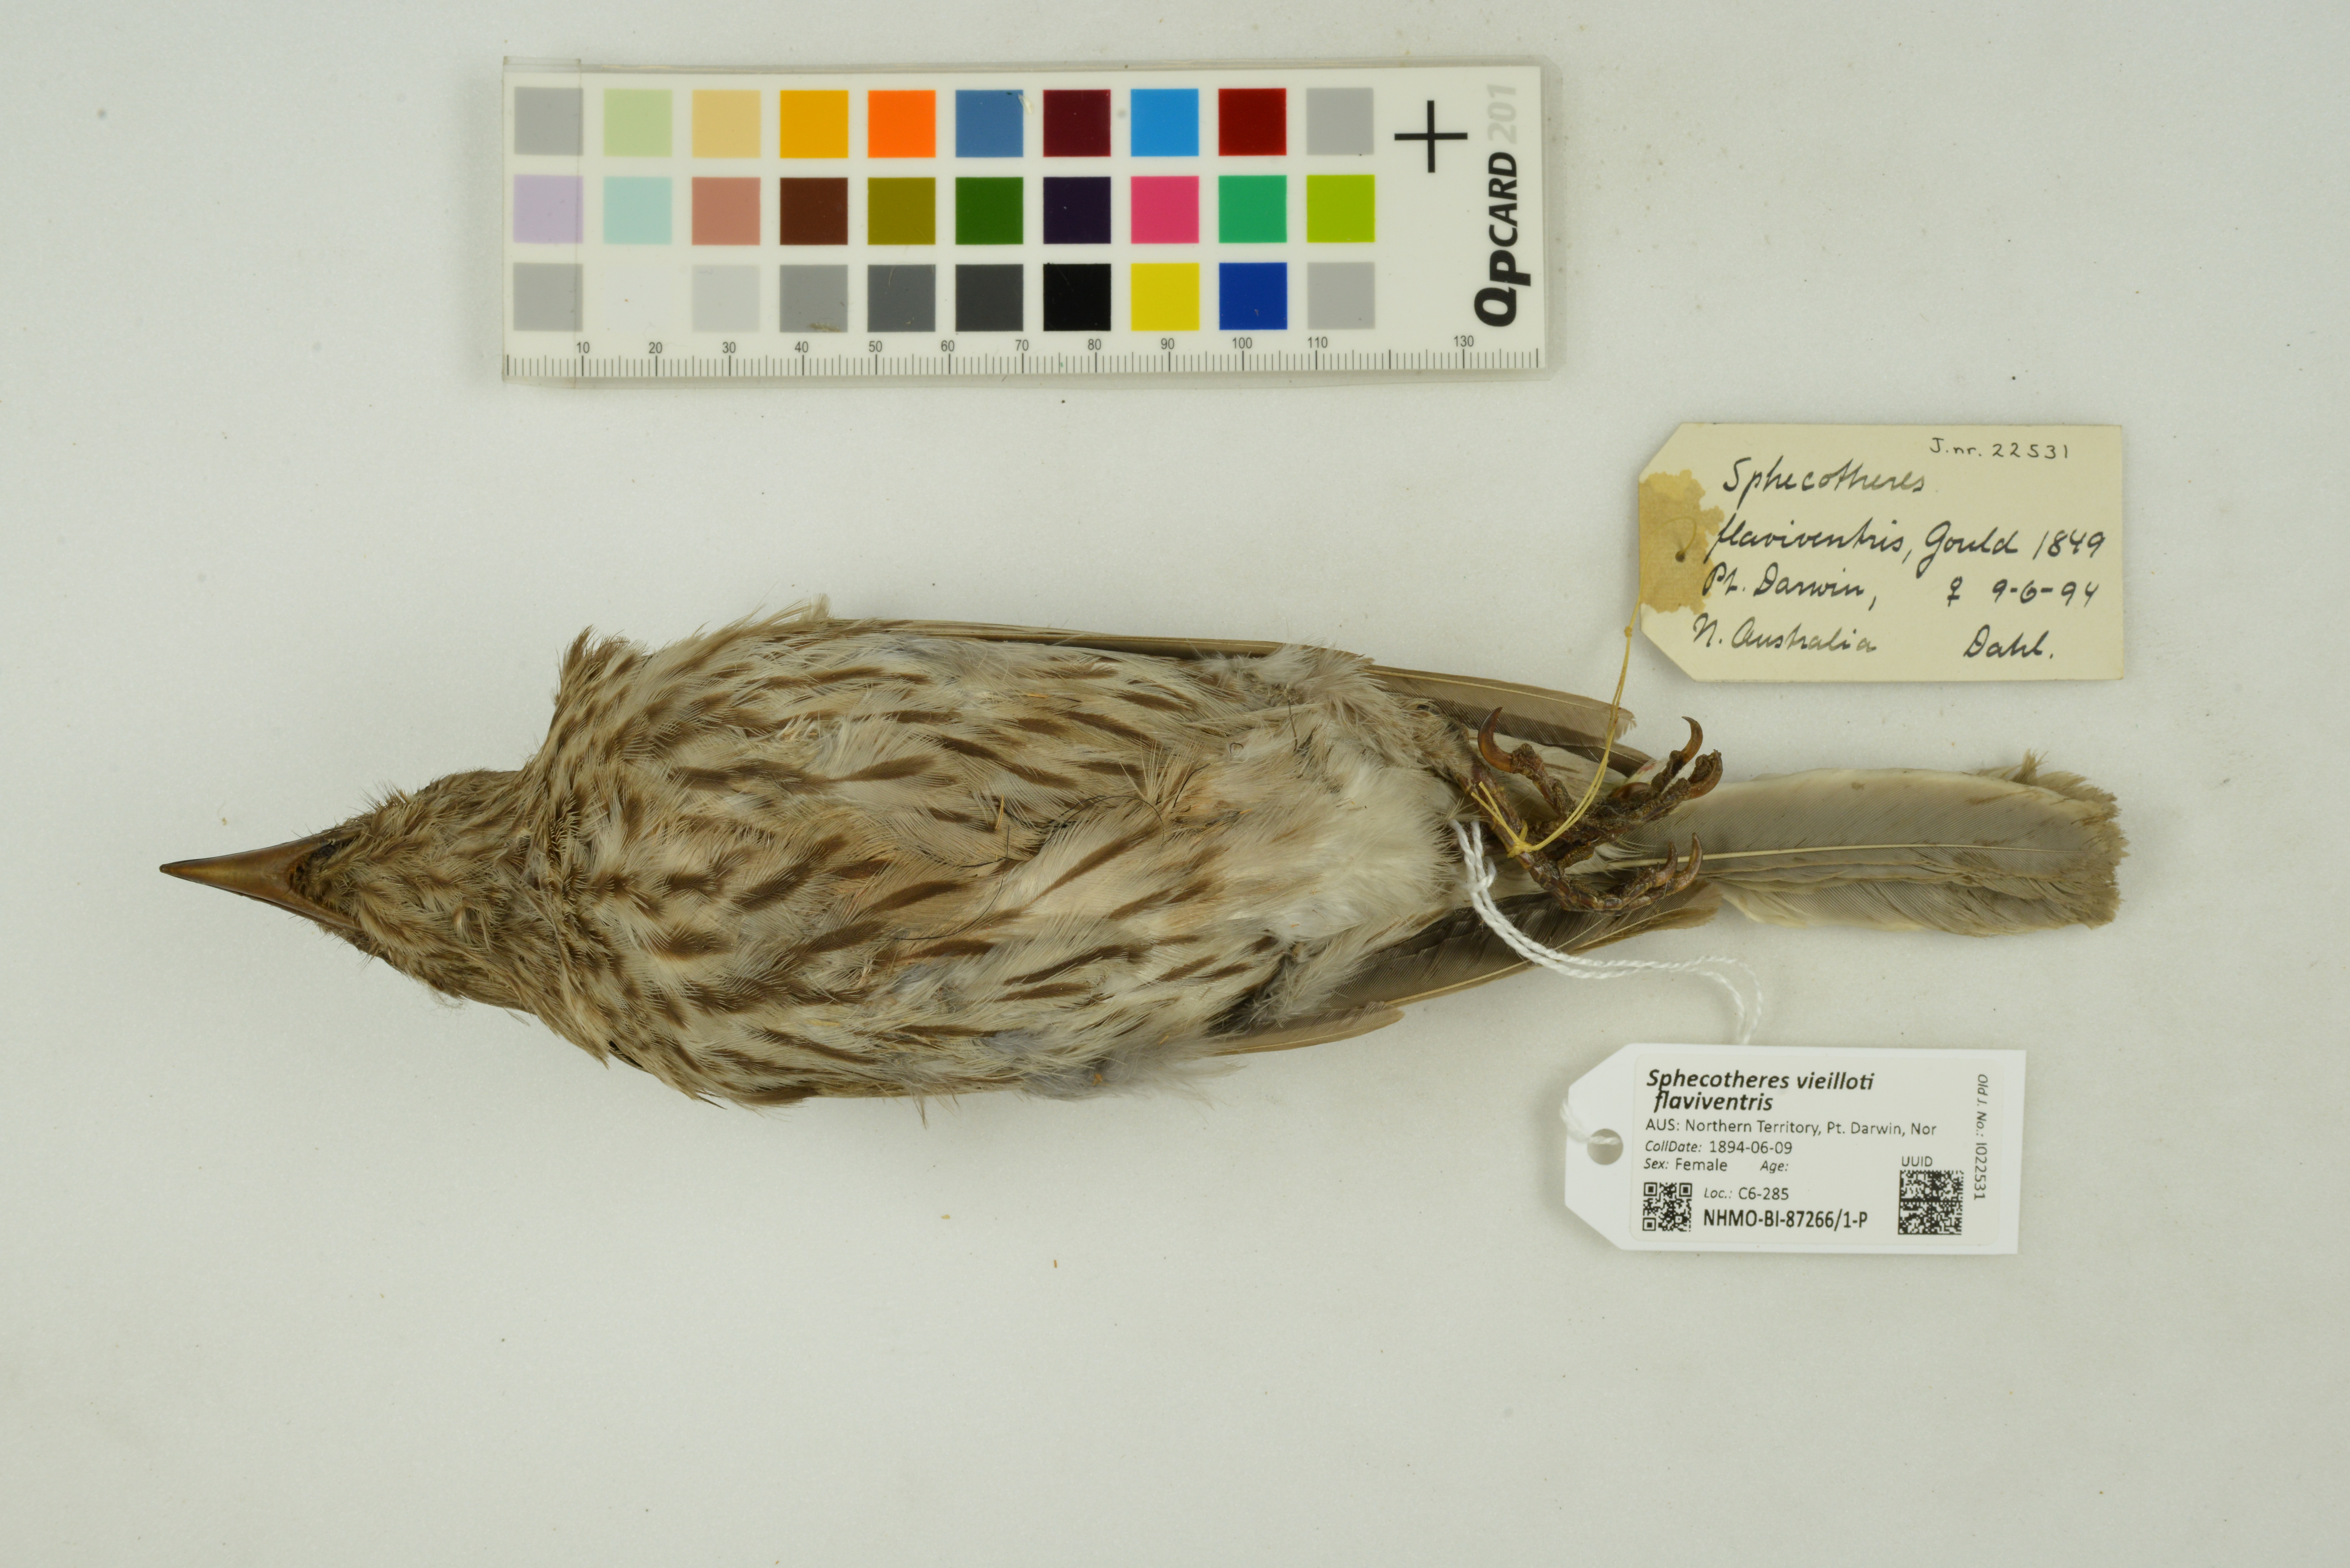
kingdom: Animalia
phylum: Chordata
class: Aves
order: Passeriformes
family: Oriolidae
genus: Sphecotheres
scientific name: Sphecotheres vieilloti
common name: Australasian figbird
